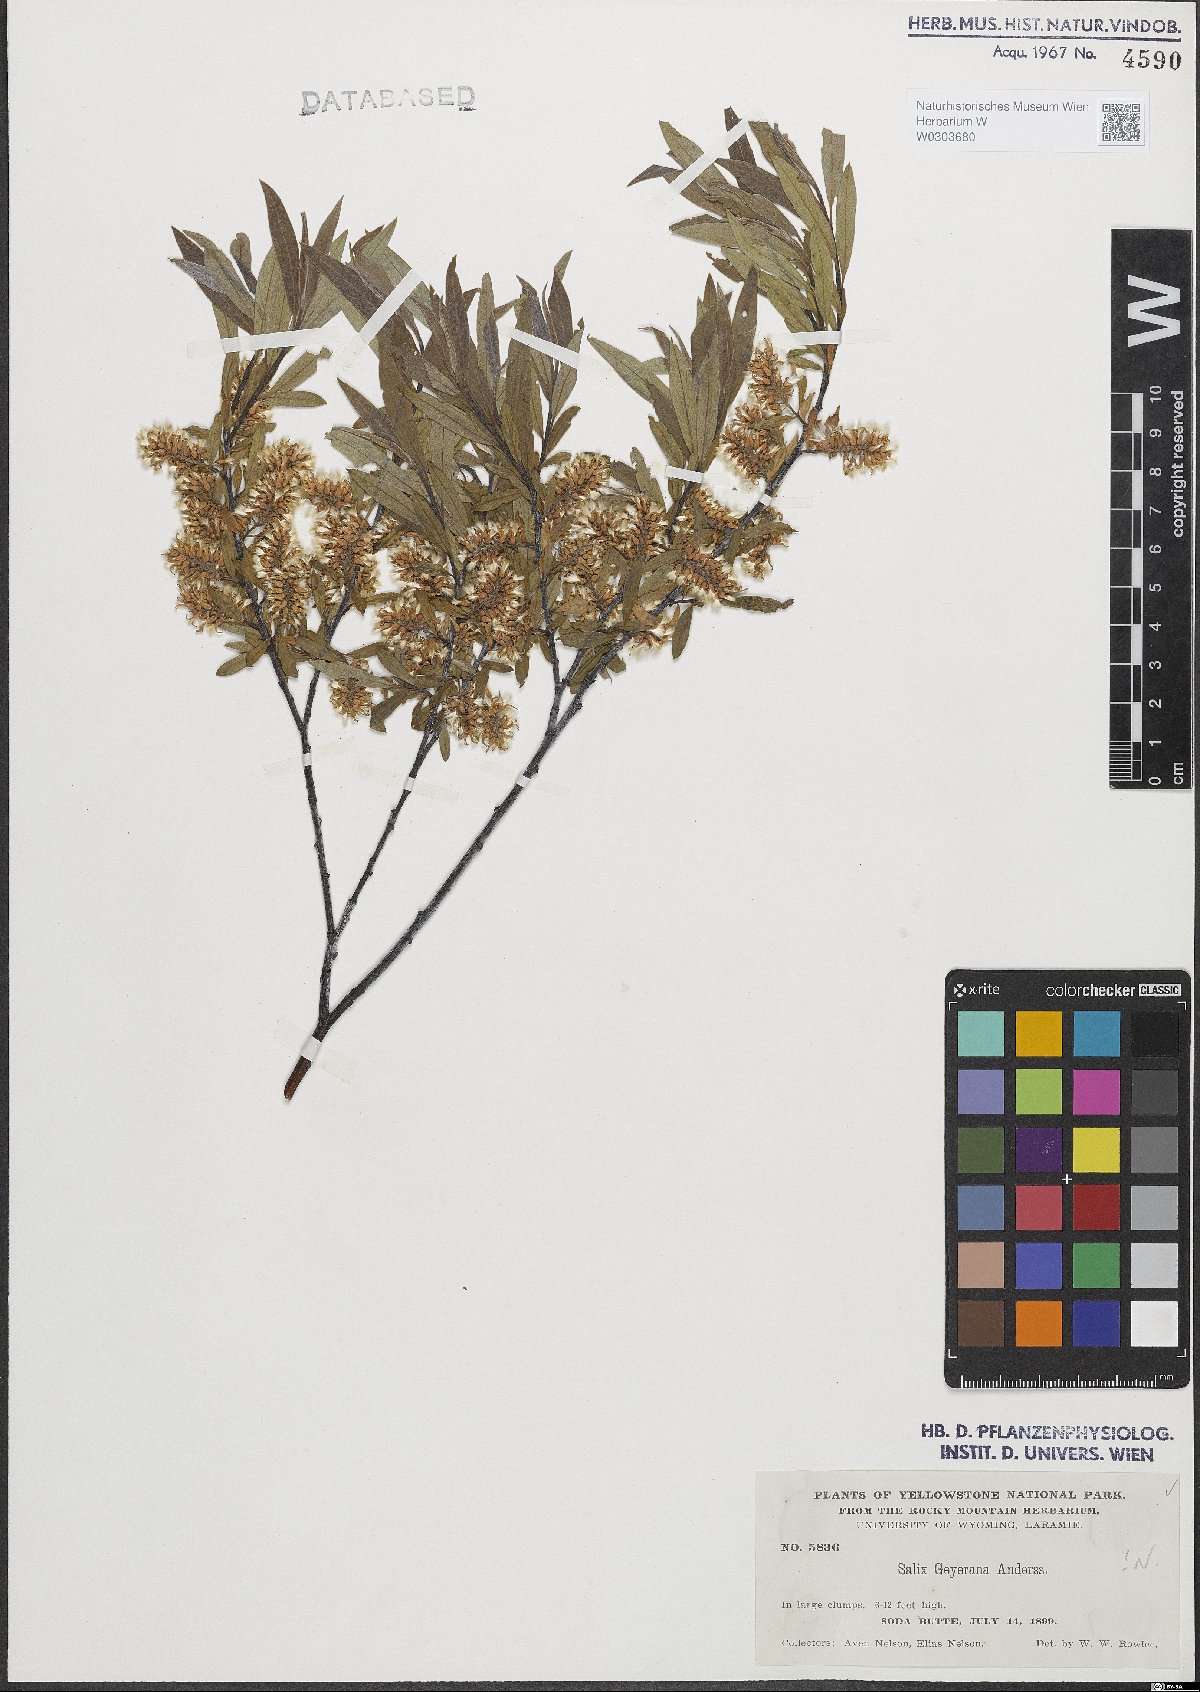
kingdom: Plantae
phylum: Tracheophyta
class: Magnoliopsida
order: Malpighiales
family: Salicaceae
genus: Salix
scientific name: Salix geyeriana
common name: Geyer's willow
